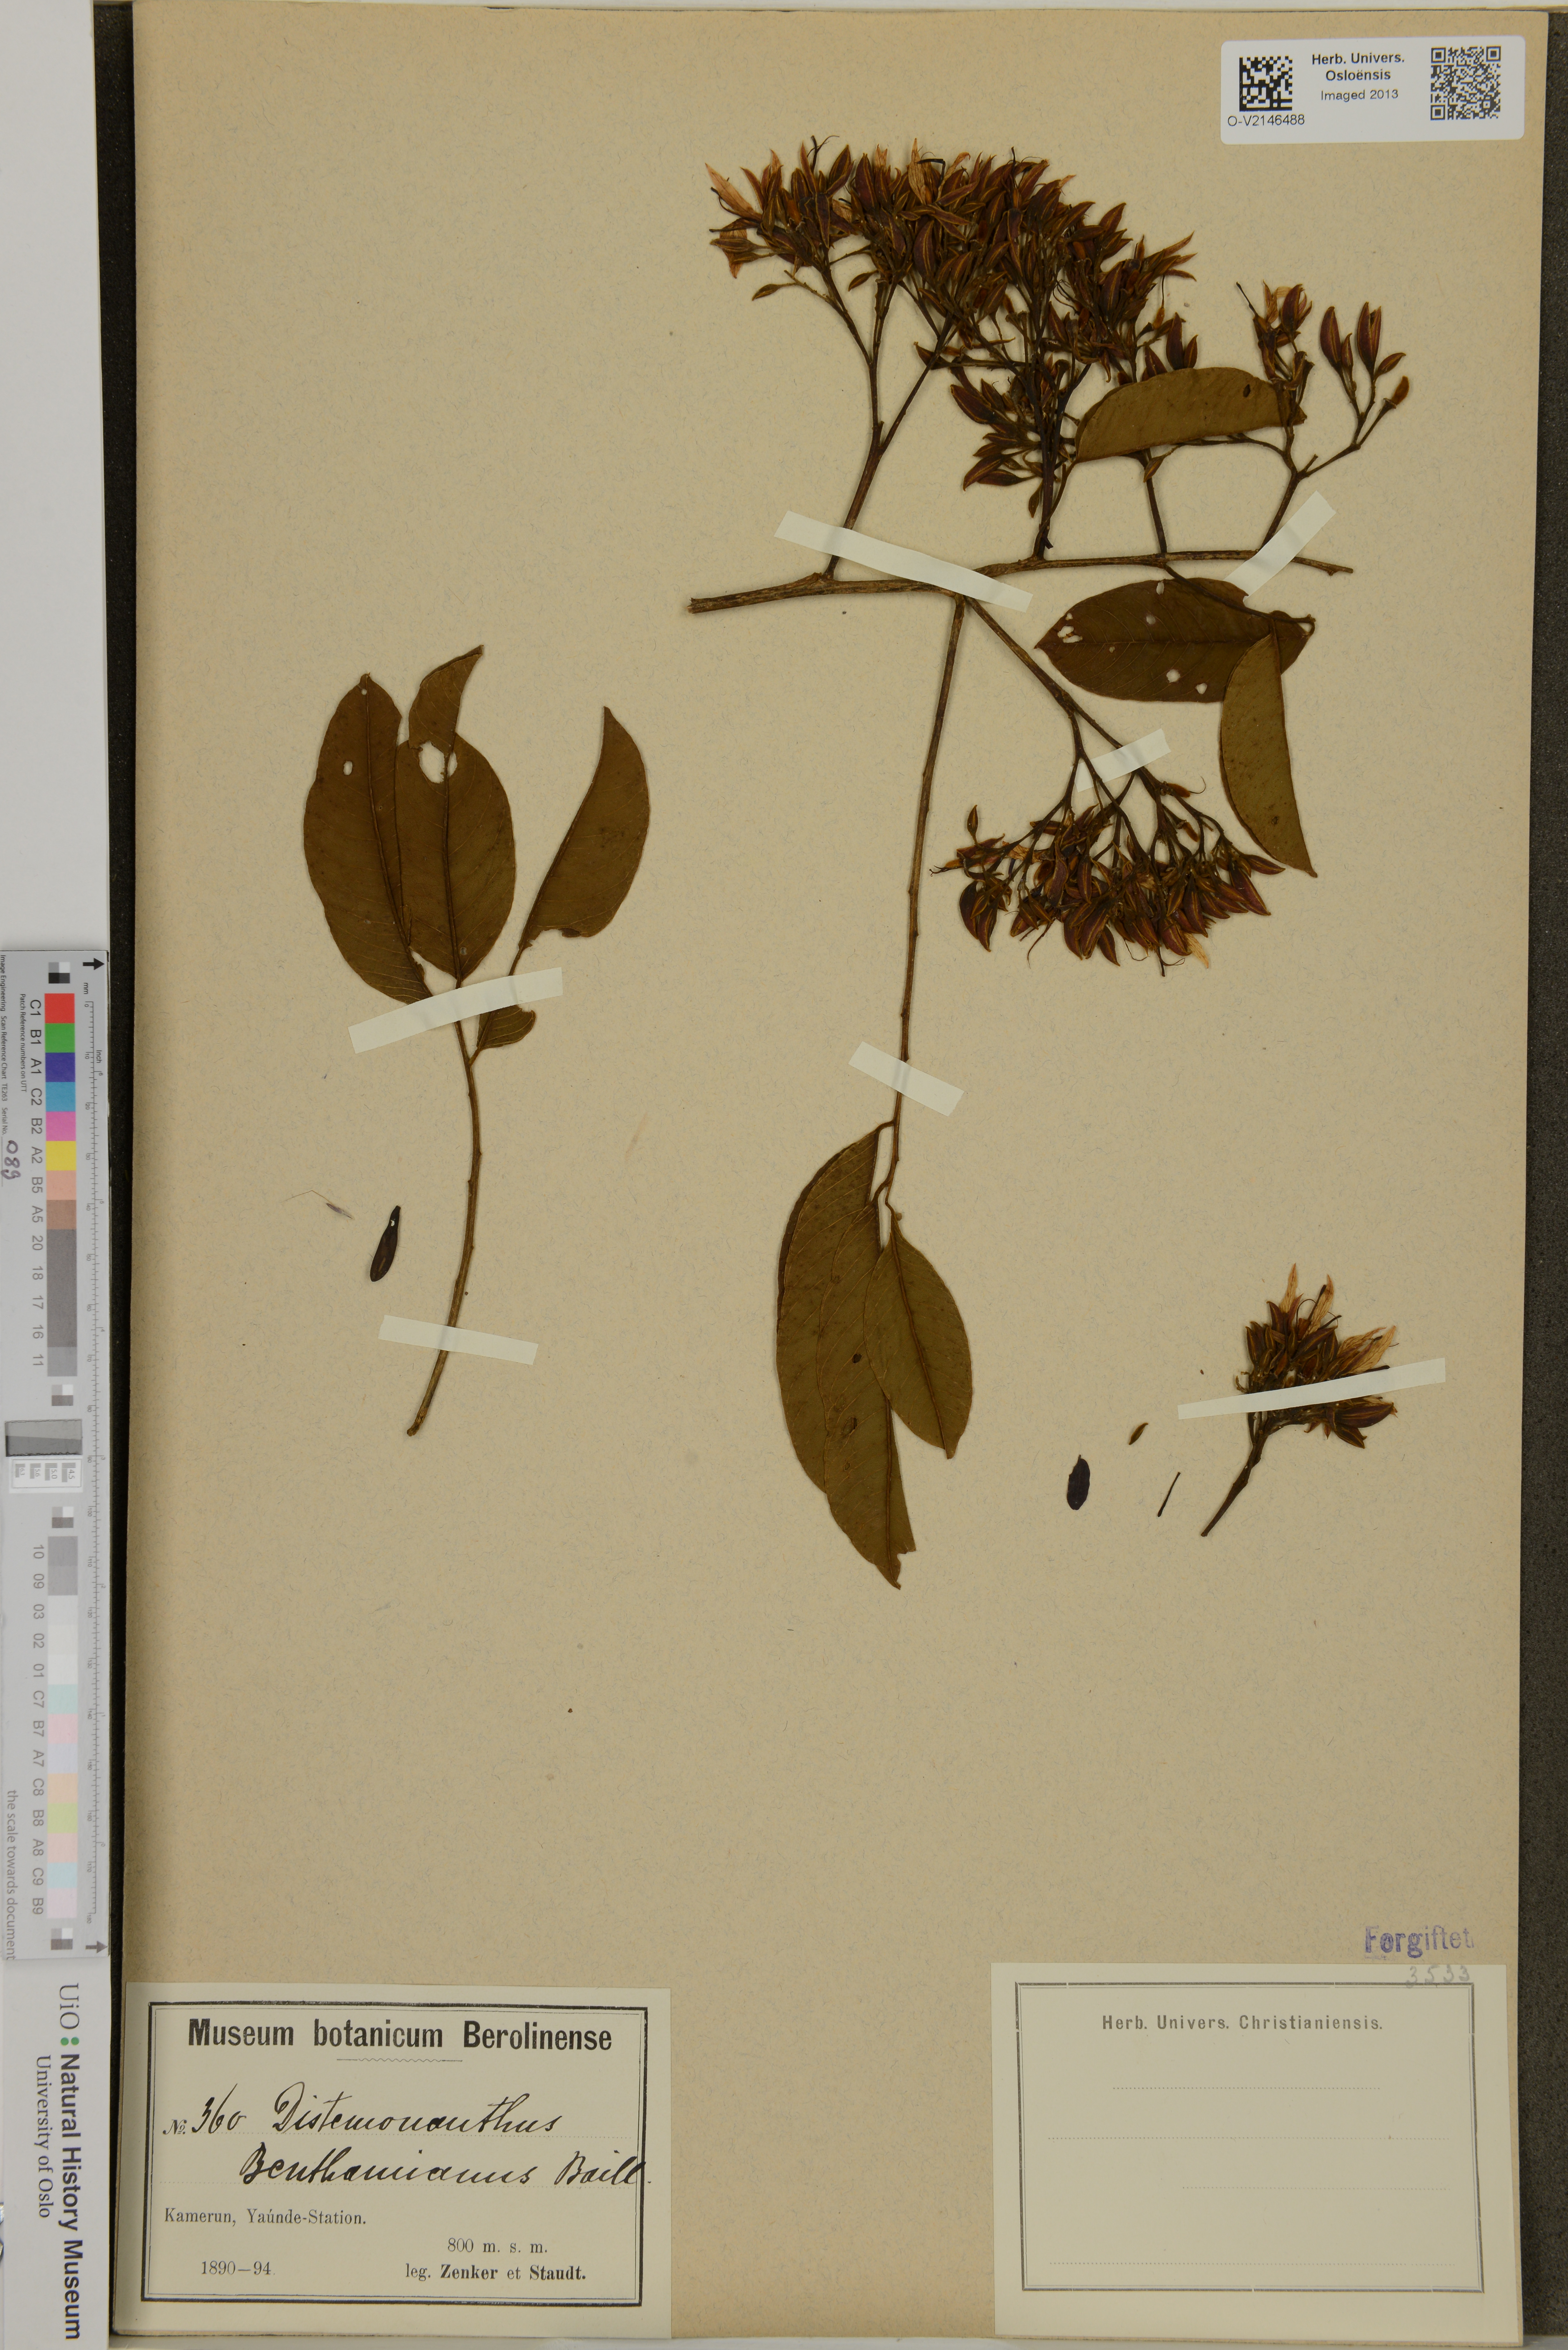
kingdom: Plantae
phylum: Tracheophyta
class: Magnoliopsida
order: Fabales
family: Fabaceae
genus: Distemonanthus
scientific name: Distemonanthus benthamianus
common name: Yellow satinwood
